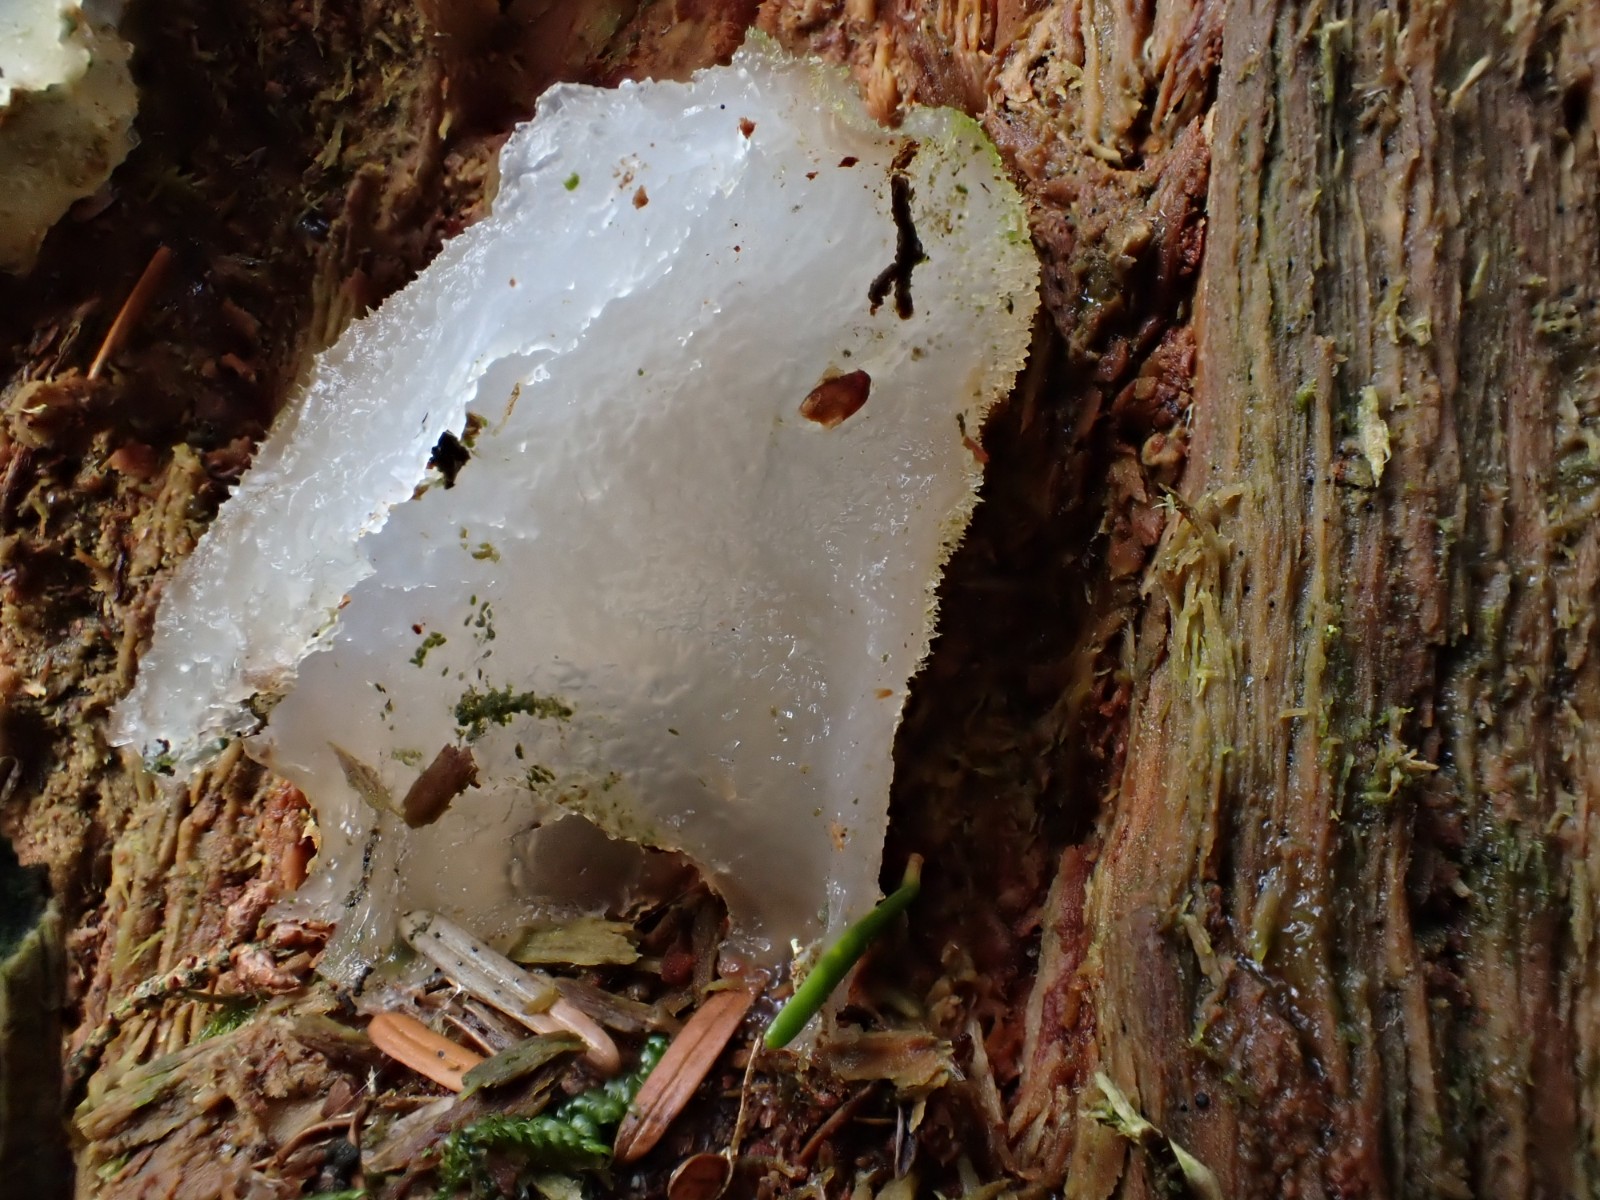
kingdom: Fungi
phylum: Basidiomycota
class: Agaricomycetes
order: Auriculariales
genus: Pseudohydnum
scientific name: Pseudohydnum gelatinosum
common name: bævretand
